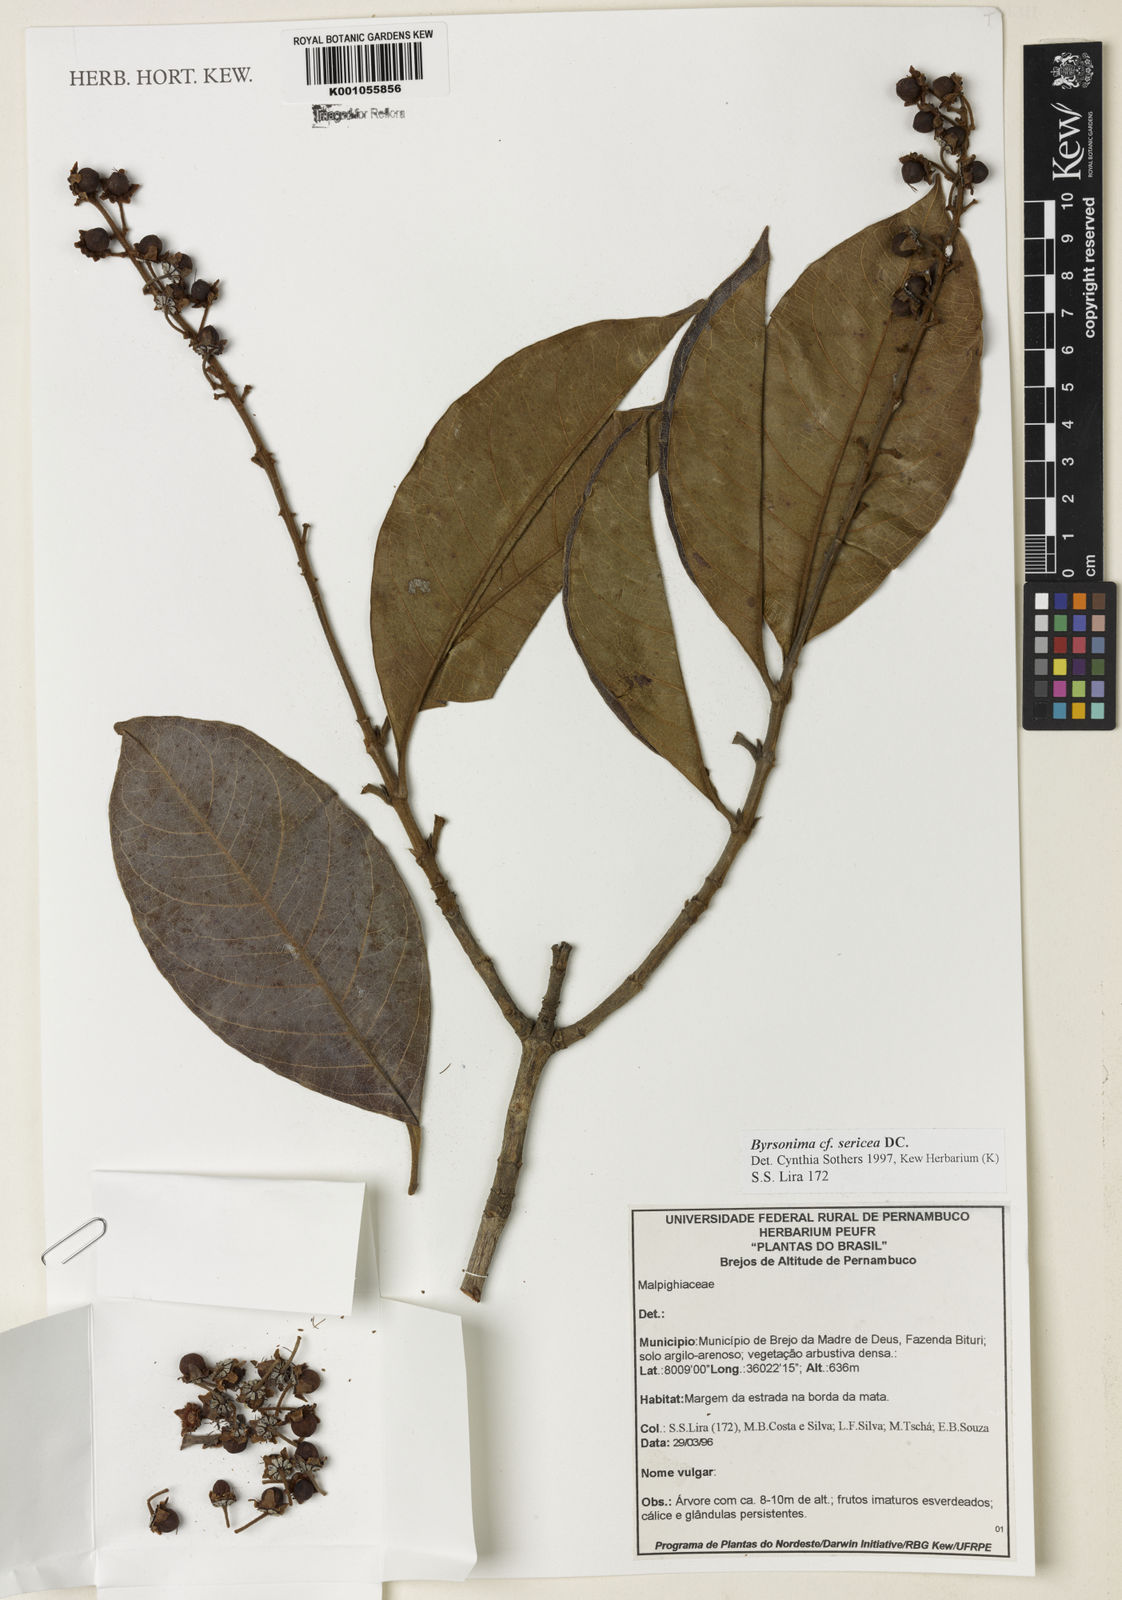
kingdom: Plantae
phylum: Tracheophyta
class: Magnoliopsida
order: Malpighiales
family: Malpighiaceae
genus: Byrsonima
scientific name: Byrsonima sericea
